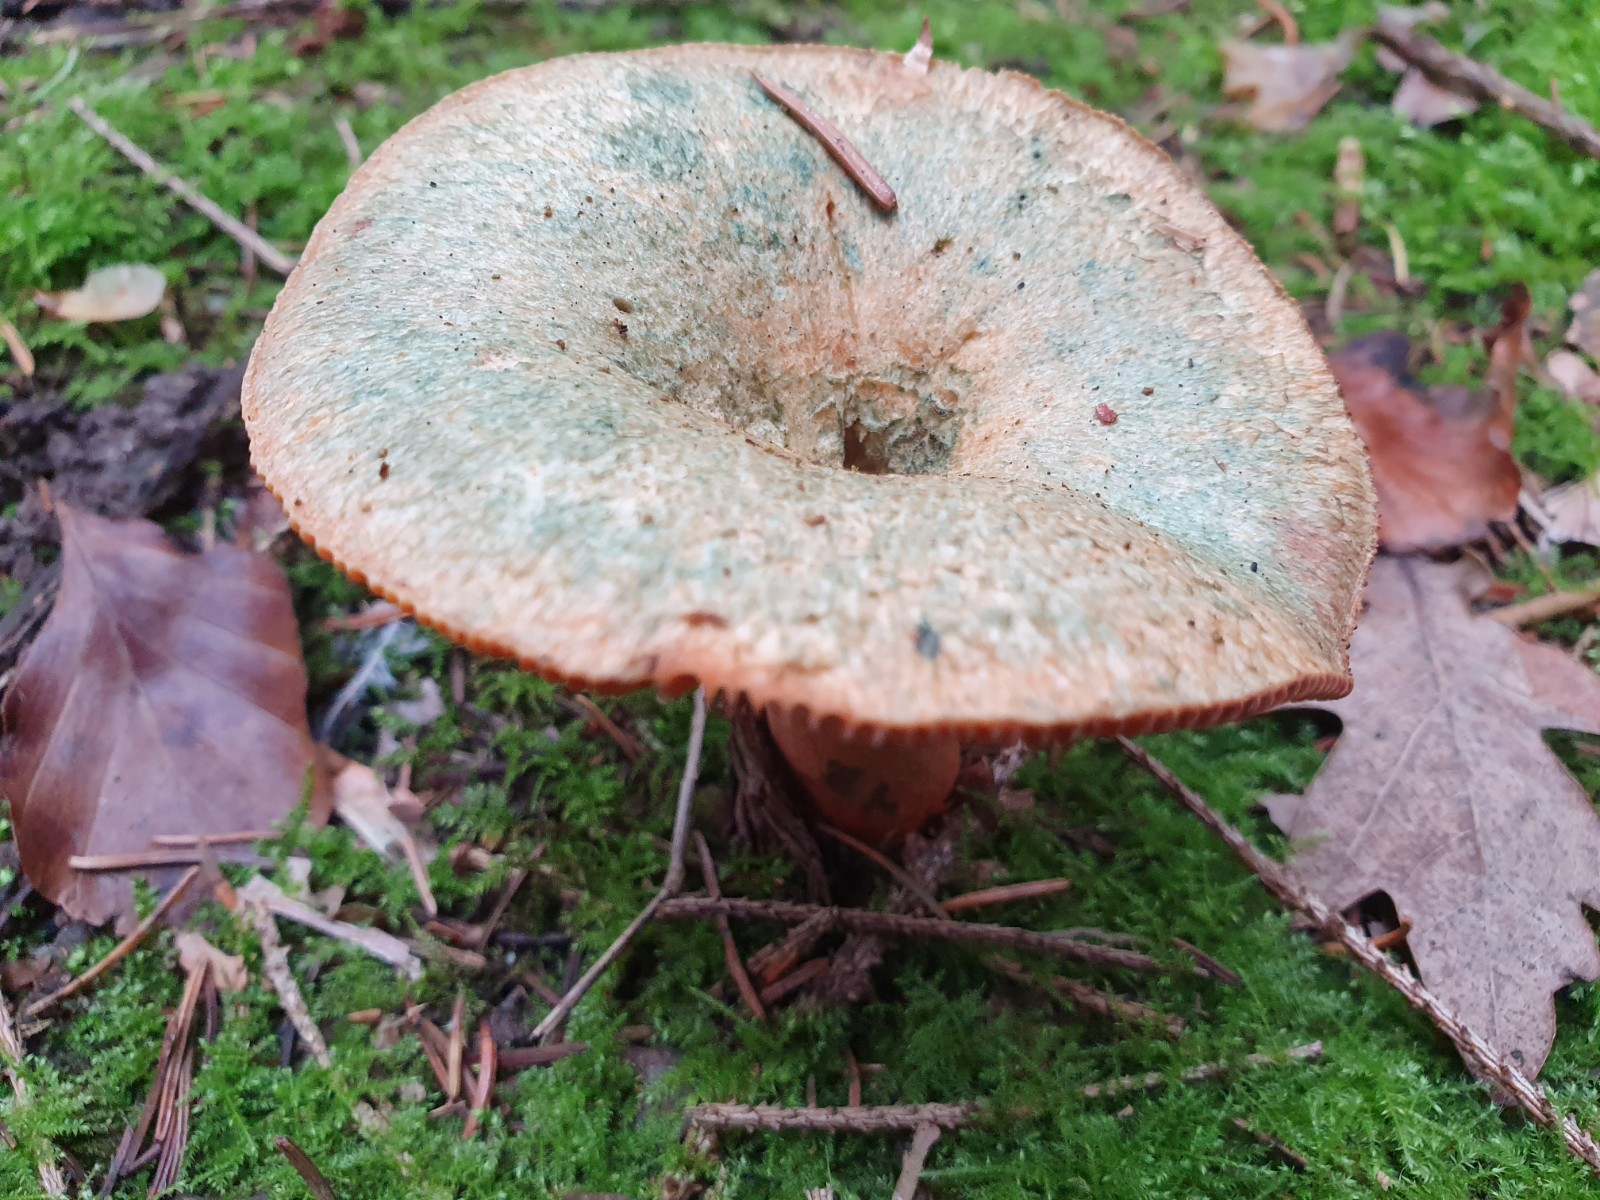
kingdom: Fungi
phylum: Basidiomycota
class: Agaricomycetes
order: Russulales
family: Russulaceae
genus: Lactarius
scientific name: Lactarius deterrimus
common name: gran-mælkehat
